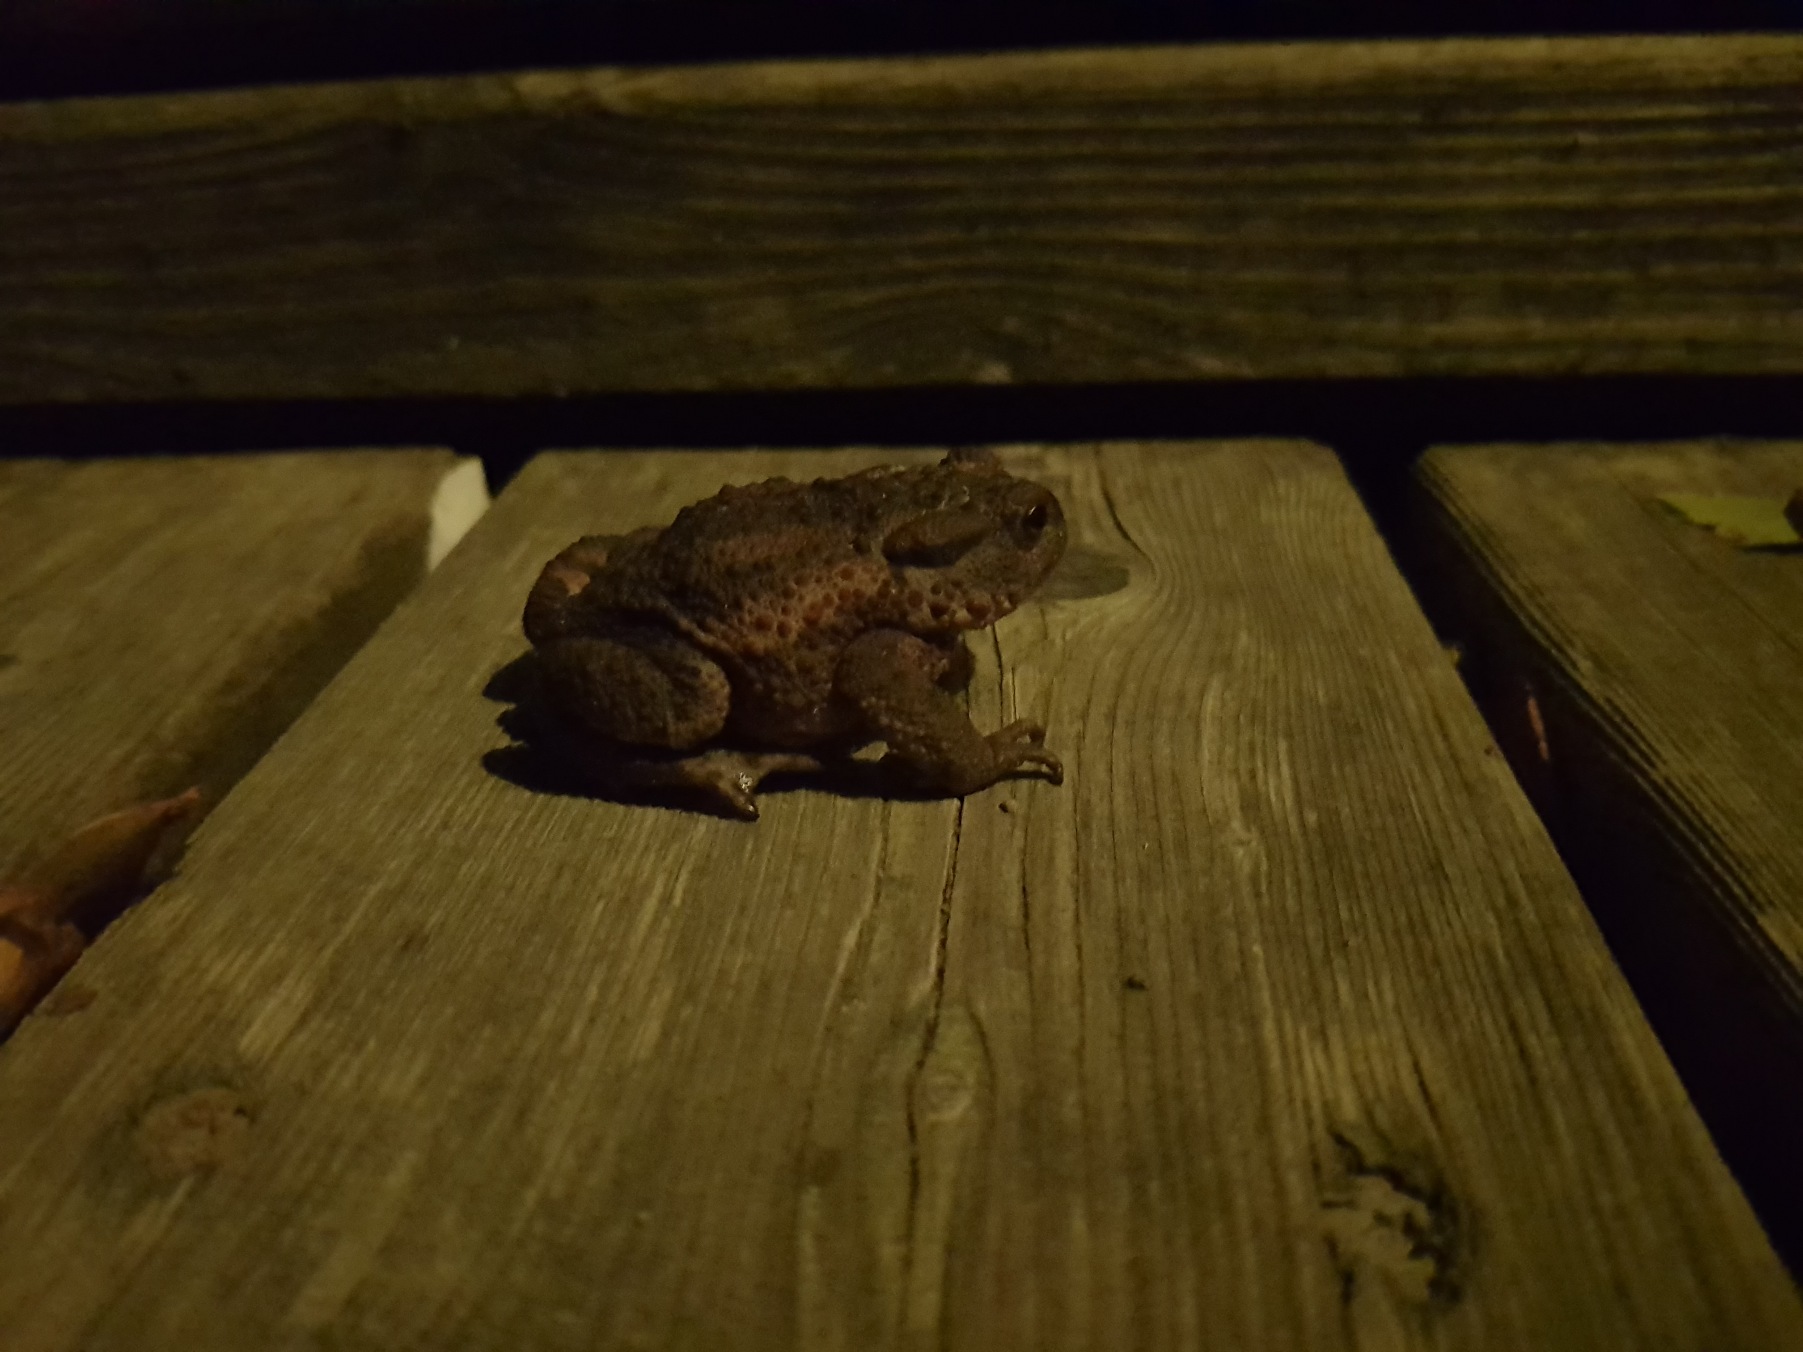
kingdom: Animalia
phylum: Chordata
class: Amphibia
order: Anura
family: Bufonidae
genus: Bufo
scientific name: Bufo bufo
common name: Skrubtudse
